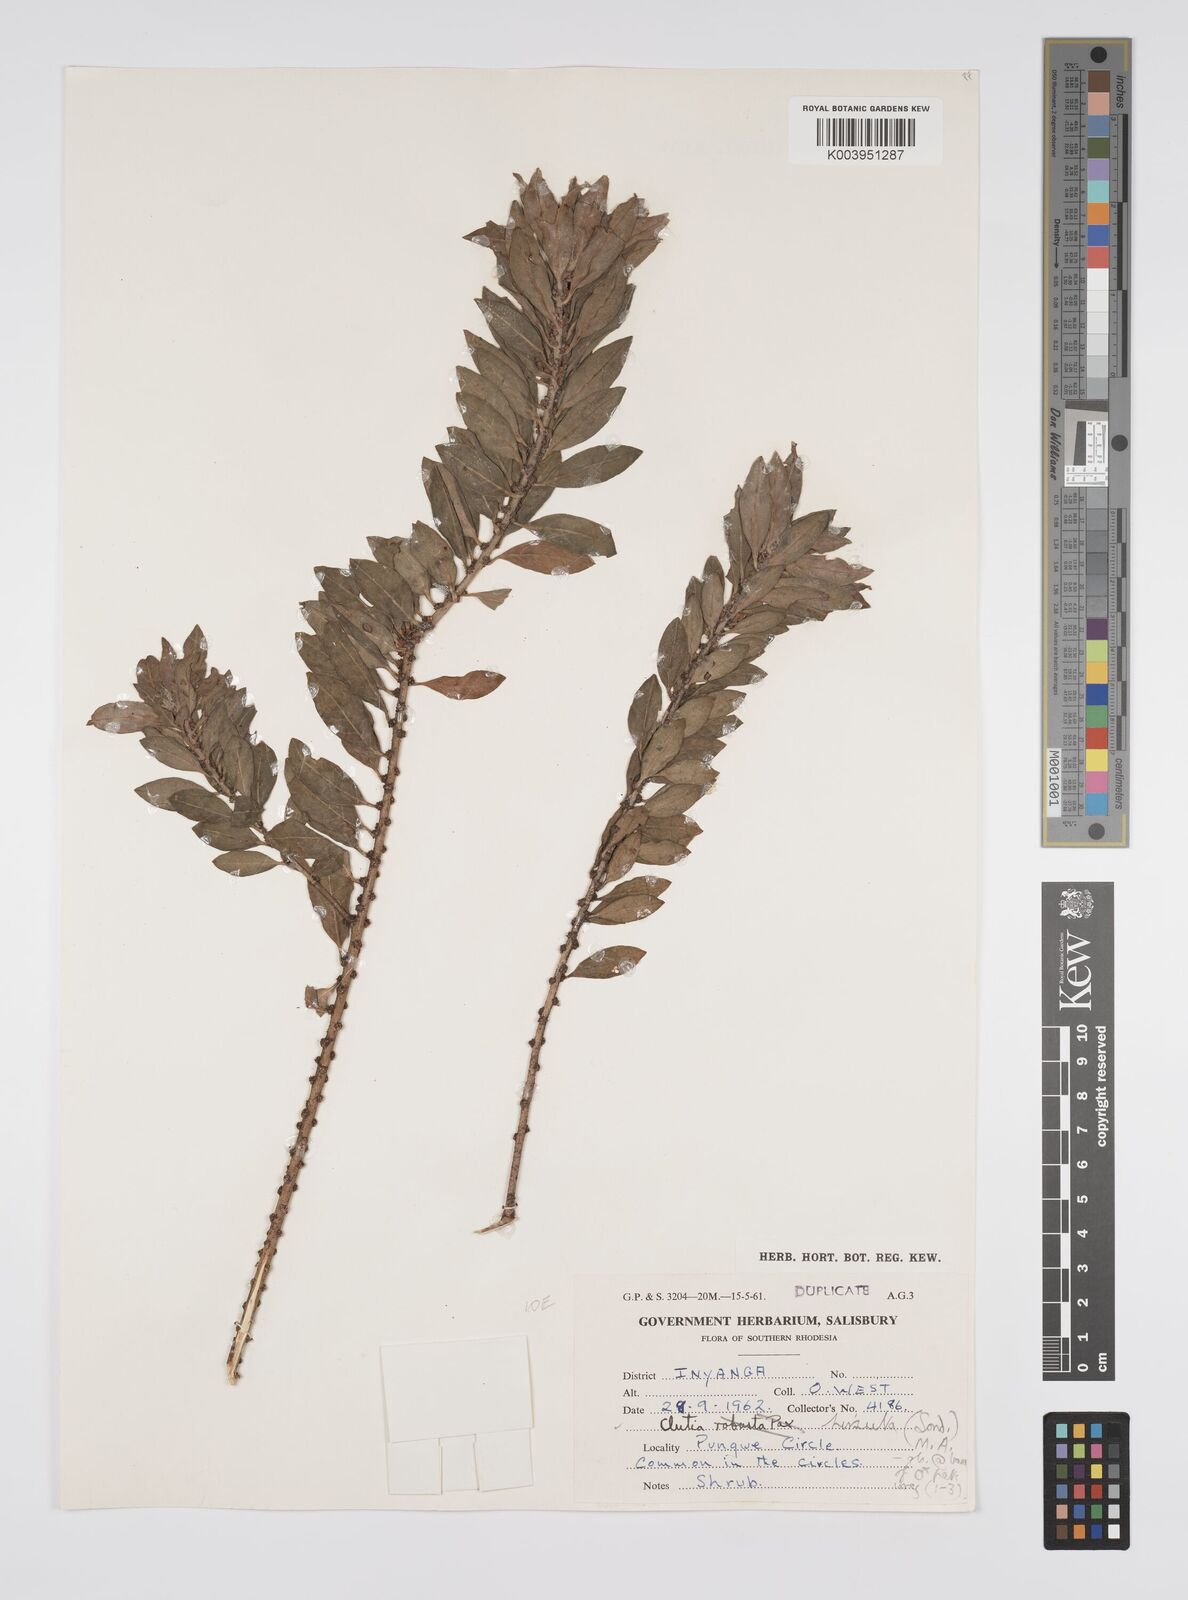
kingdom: Plantae
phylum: Tracheophyta
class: Magnoliopsida
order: Malpighiales
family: Peraceae
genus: Clutia
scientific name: Clutia
